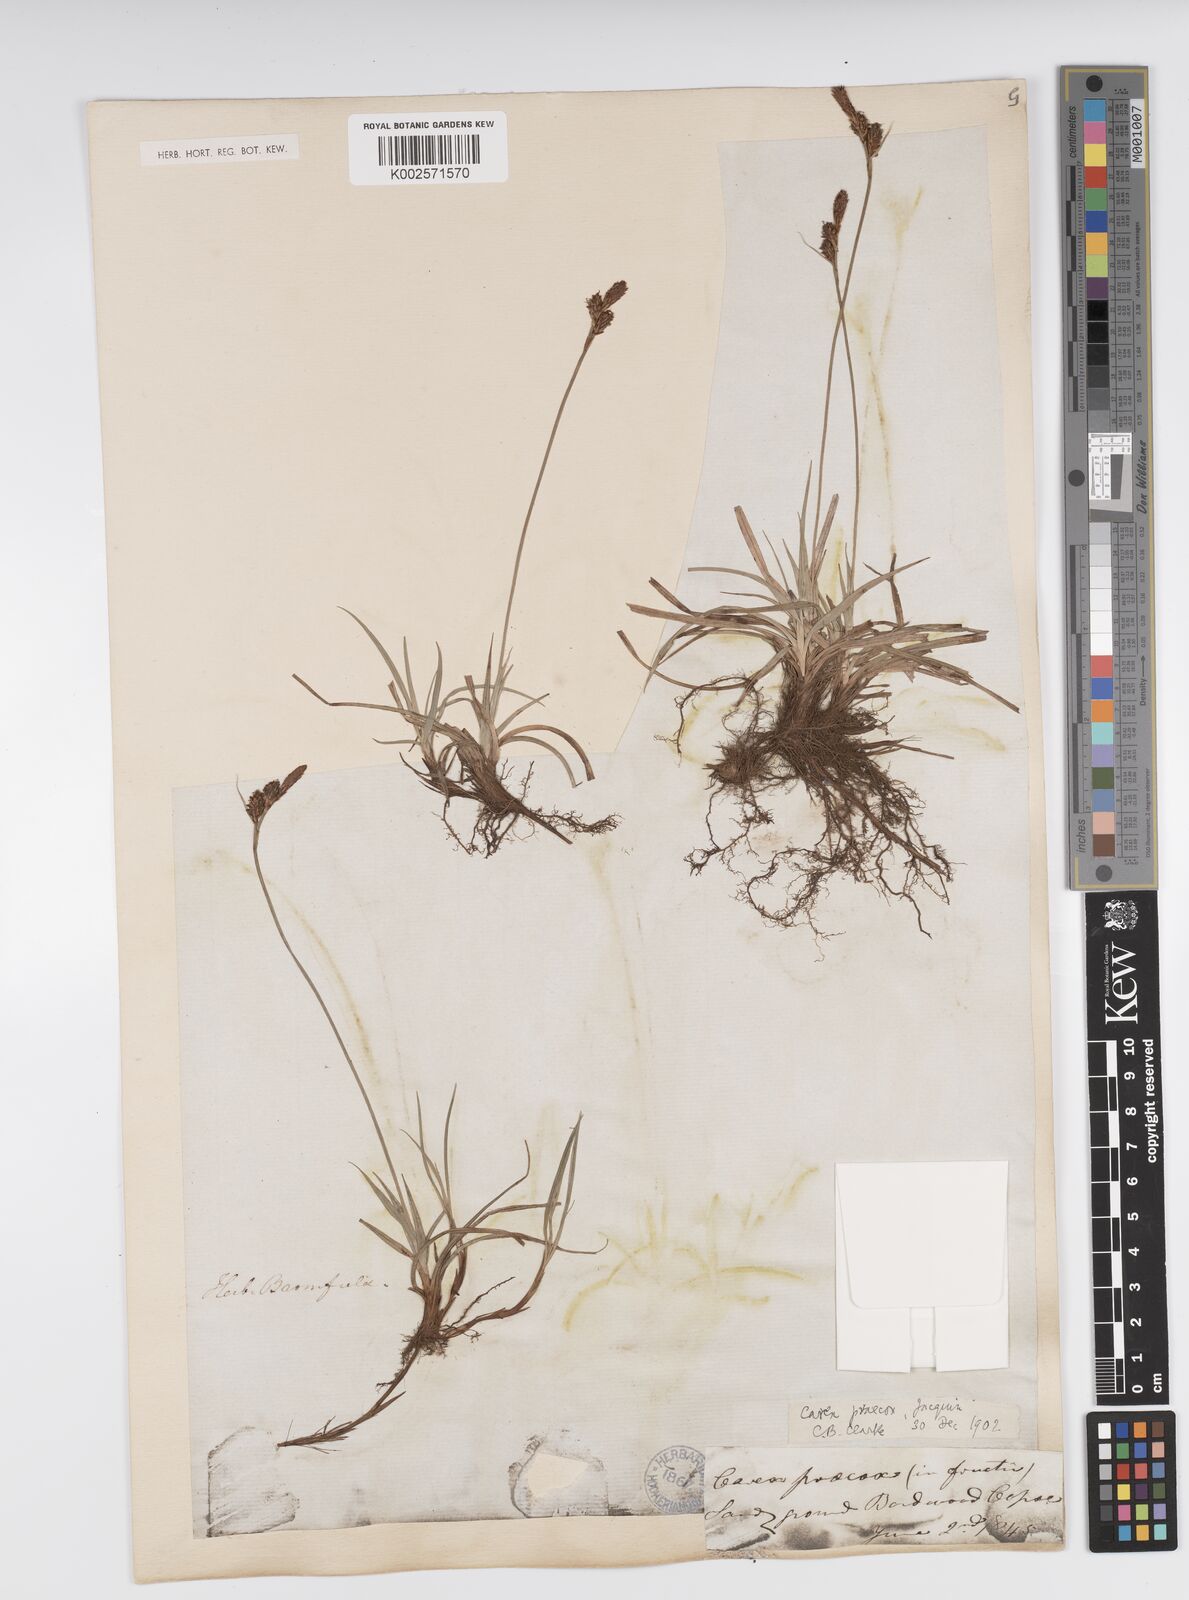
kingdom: Plantae
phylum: Tracheophyta
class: Liliopsida
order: Poales
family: Cyperaceae
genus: Carex
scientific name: Carex caryophyllea
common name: Spring sedge
